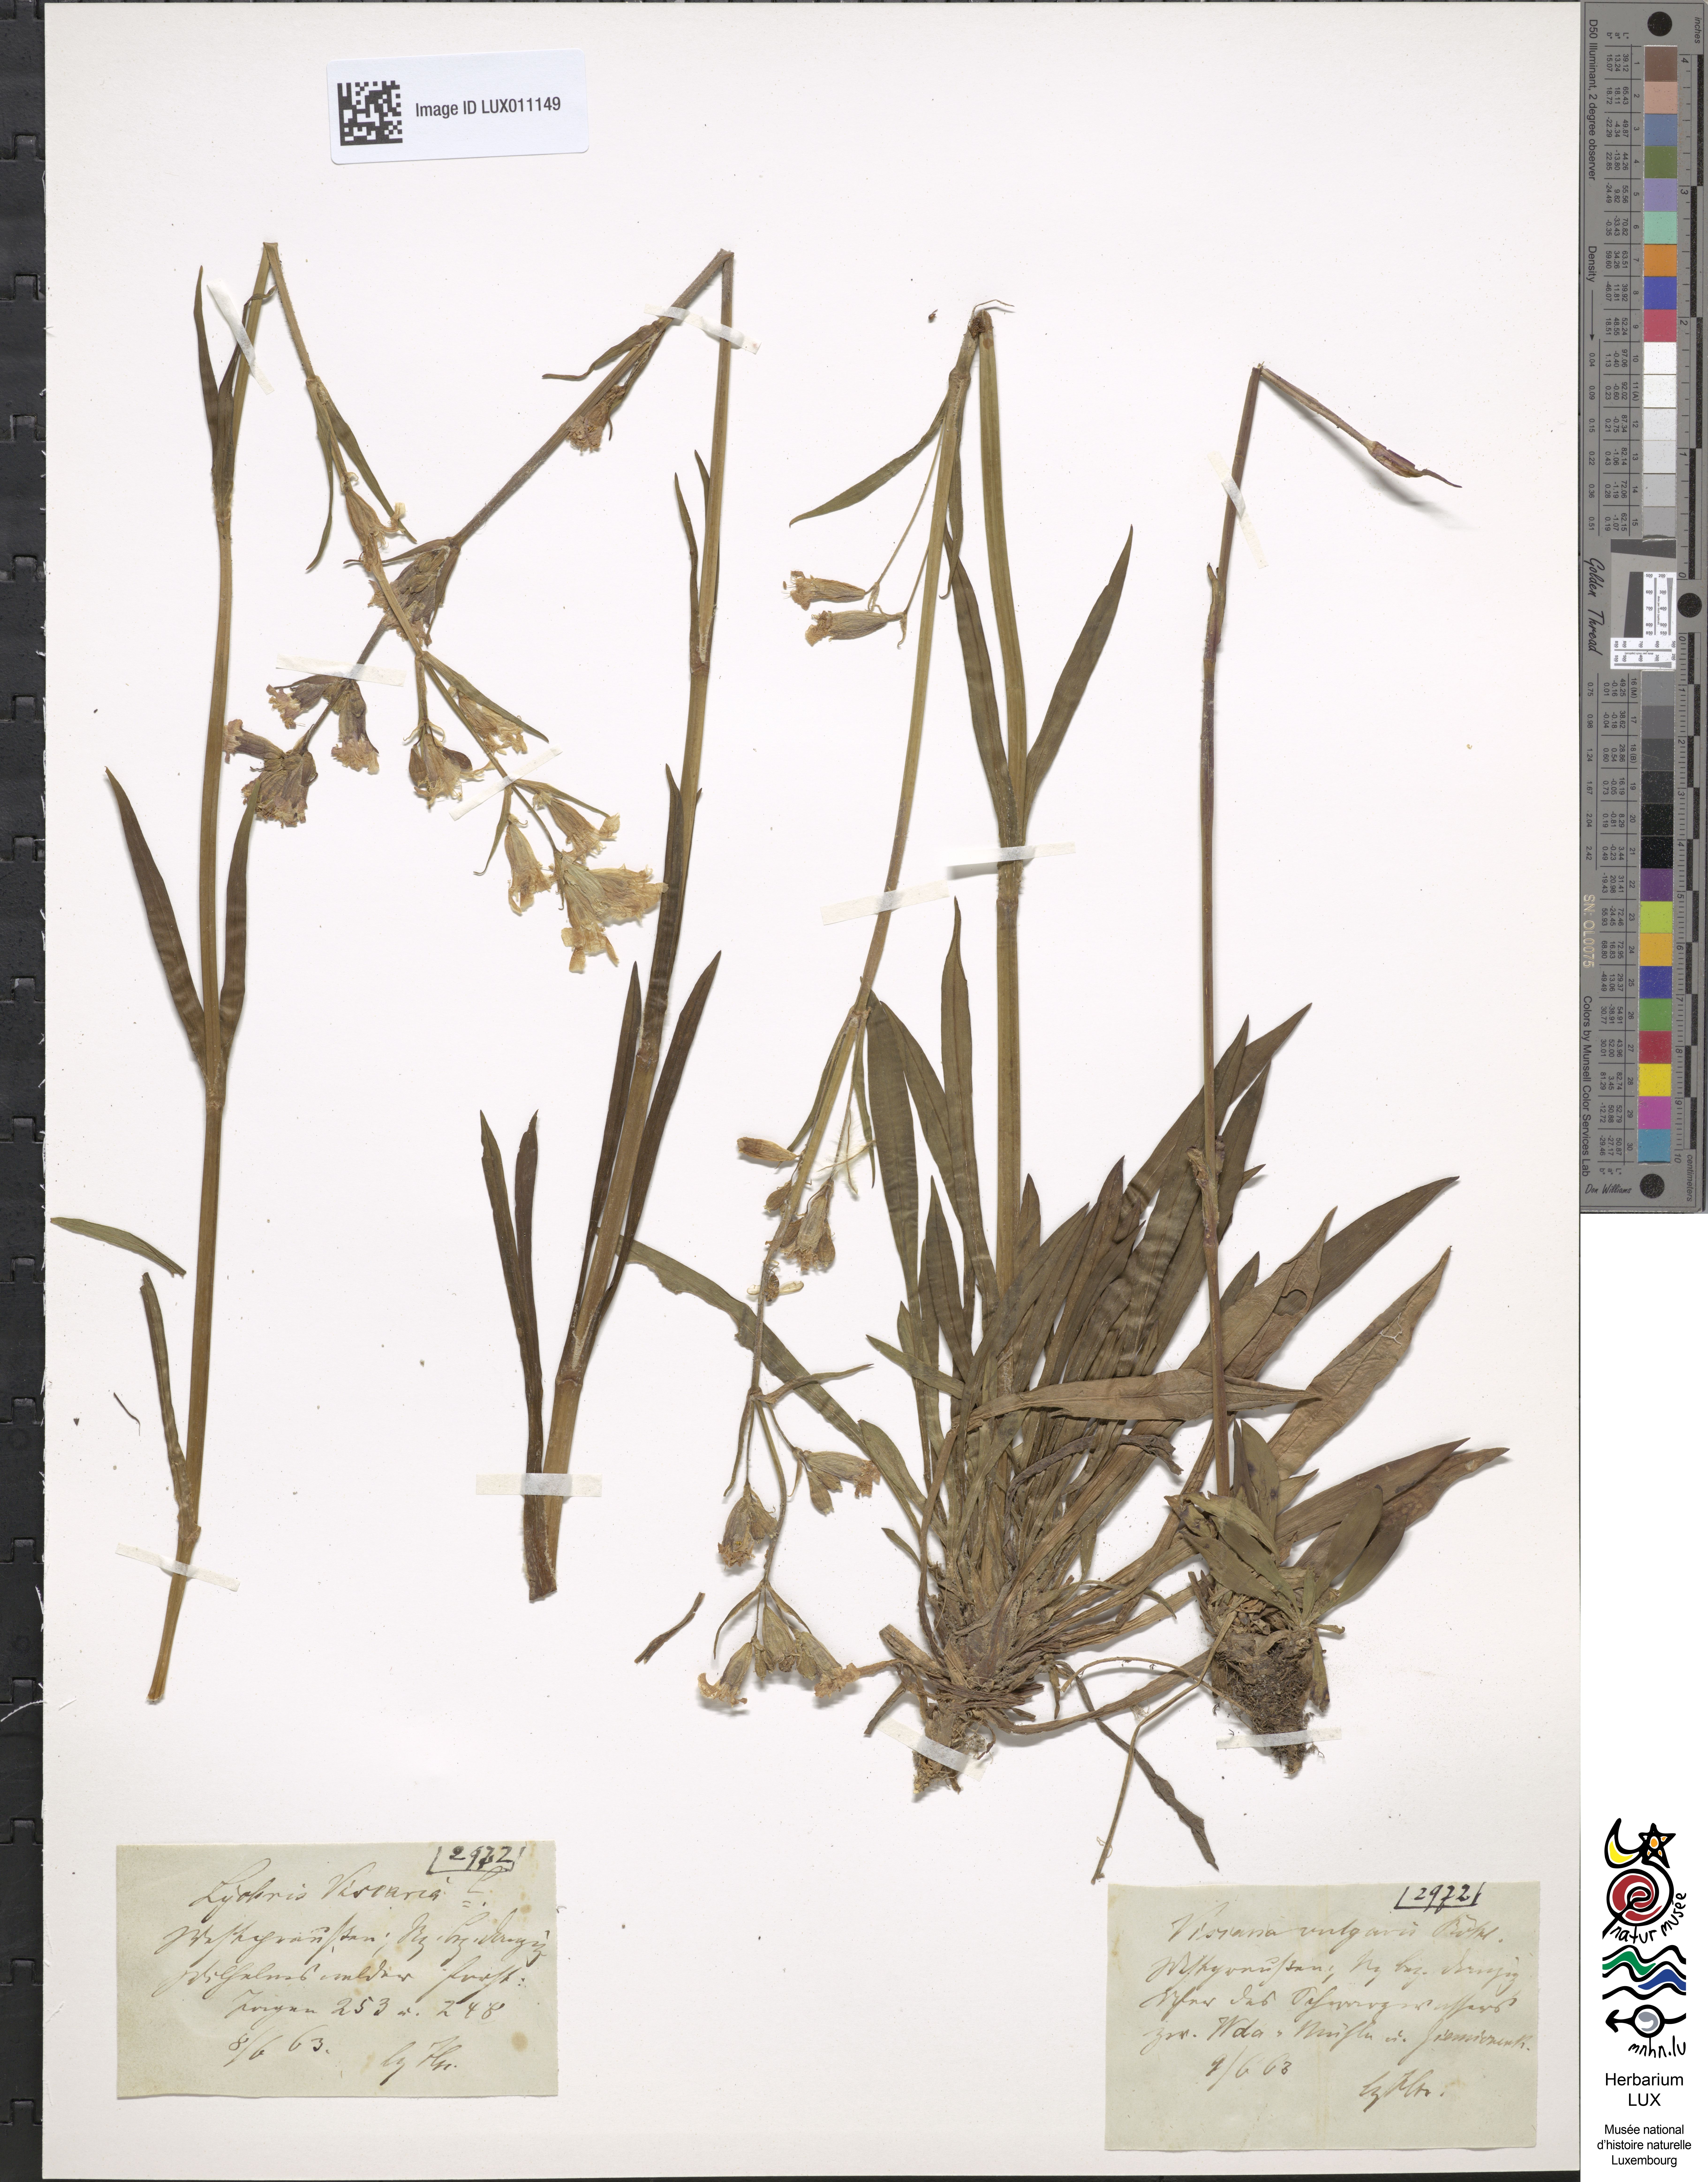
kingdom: Plantae
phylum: Tracheophyta
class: Magnoliopsida
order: Caryophyllales
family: Caryophyllaceae
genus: Viscaria
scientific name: Viscaria vulgaris
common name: Clammy campion
